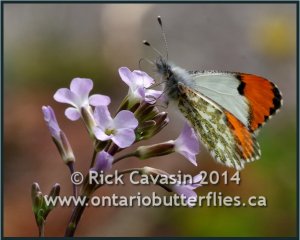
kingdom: Animalia
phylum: Arthropoda
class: Insecta
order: Lepidoptera
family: Pieridae
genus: Anthocharis
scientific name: Anthocharis sara
